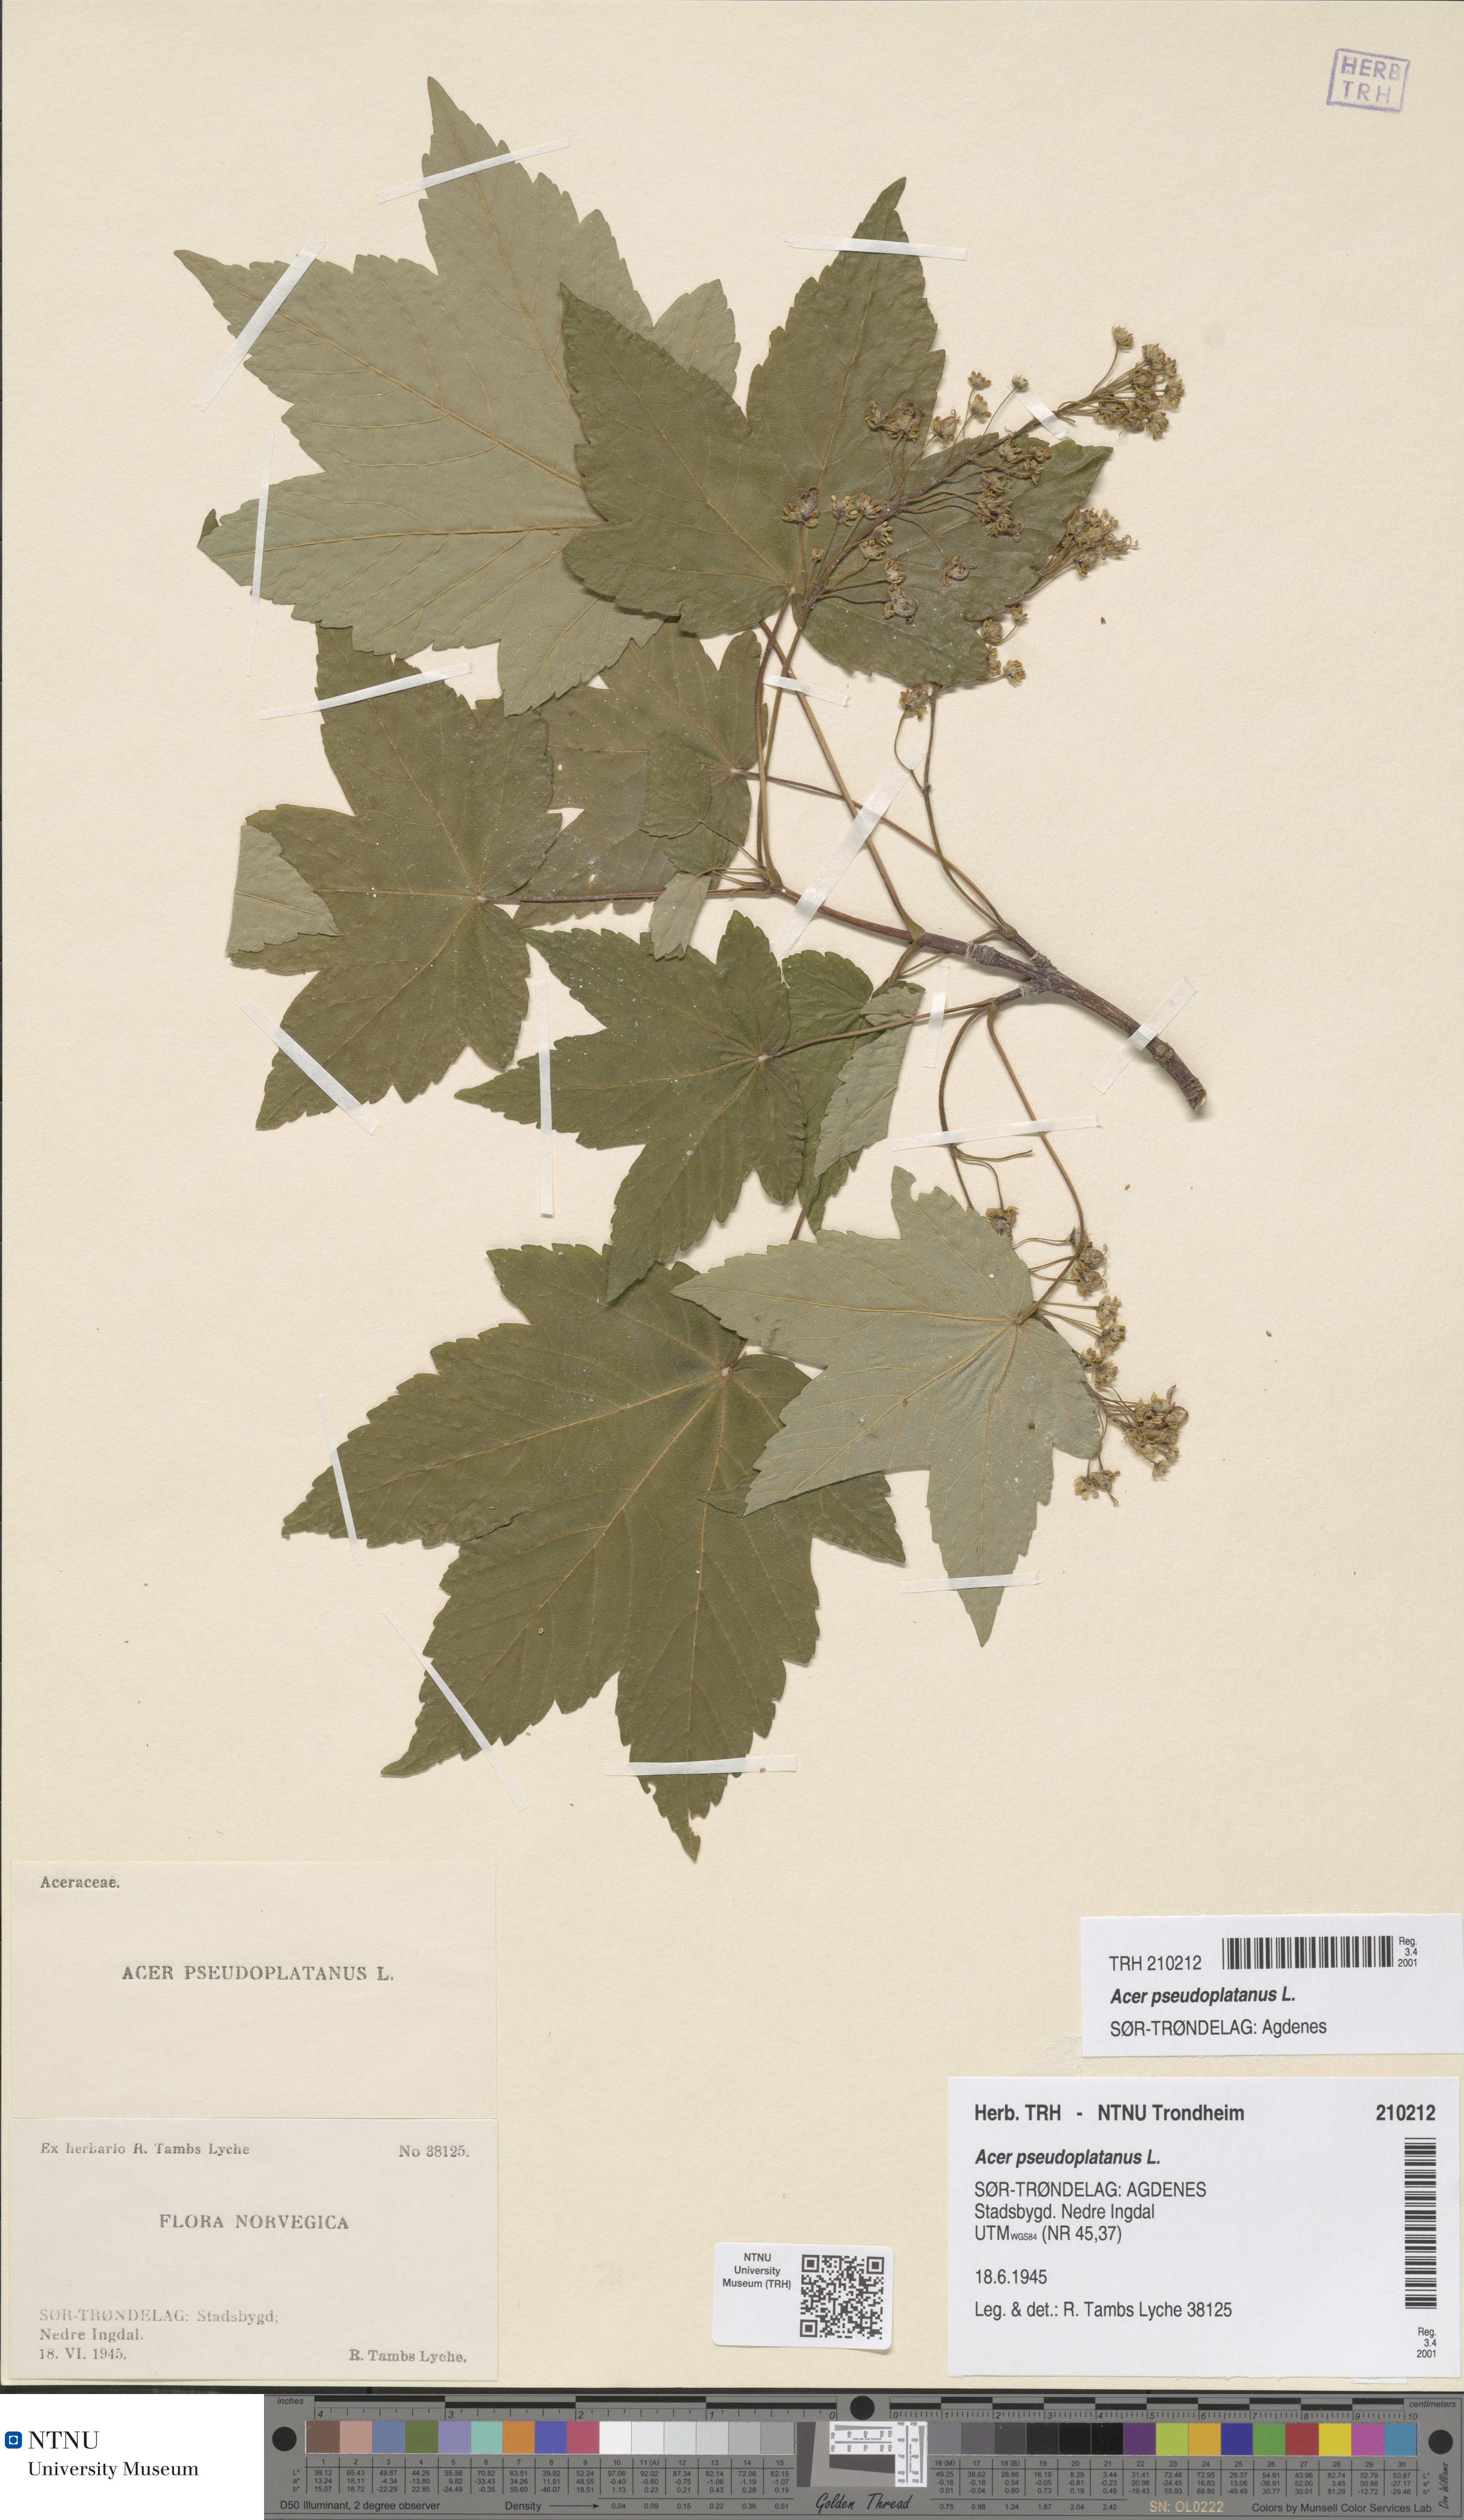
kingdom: Plantae
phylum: Tracheophyta
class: Magnoliopsida
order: Sapindales
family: Sapindaceae
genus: Acer
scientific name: Acer pseudoplatanus
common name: Sycamore
